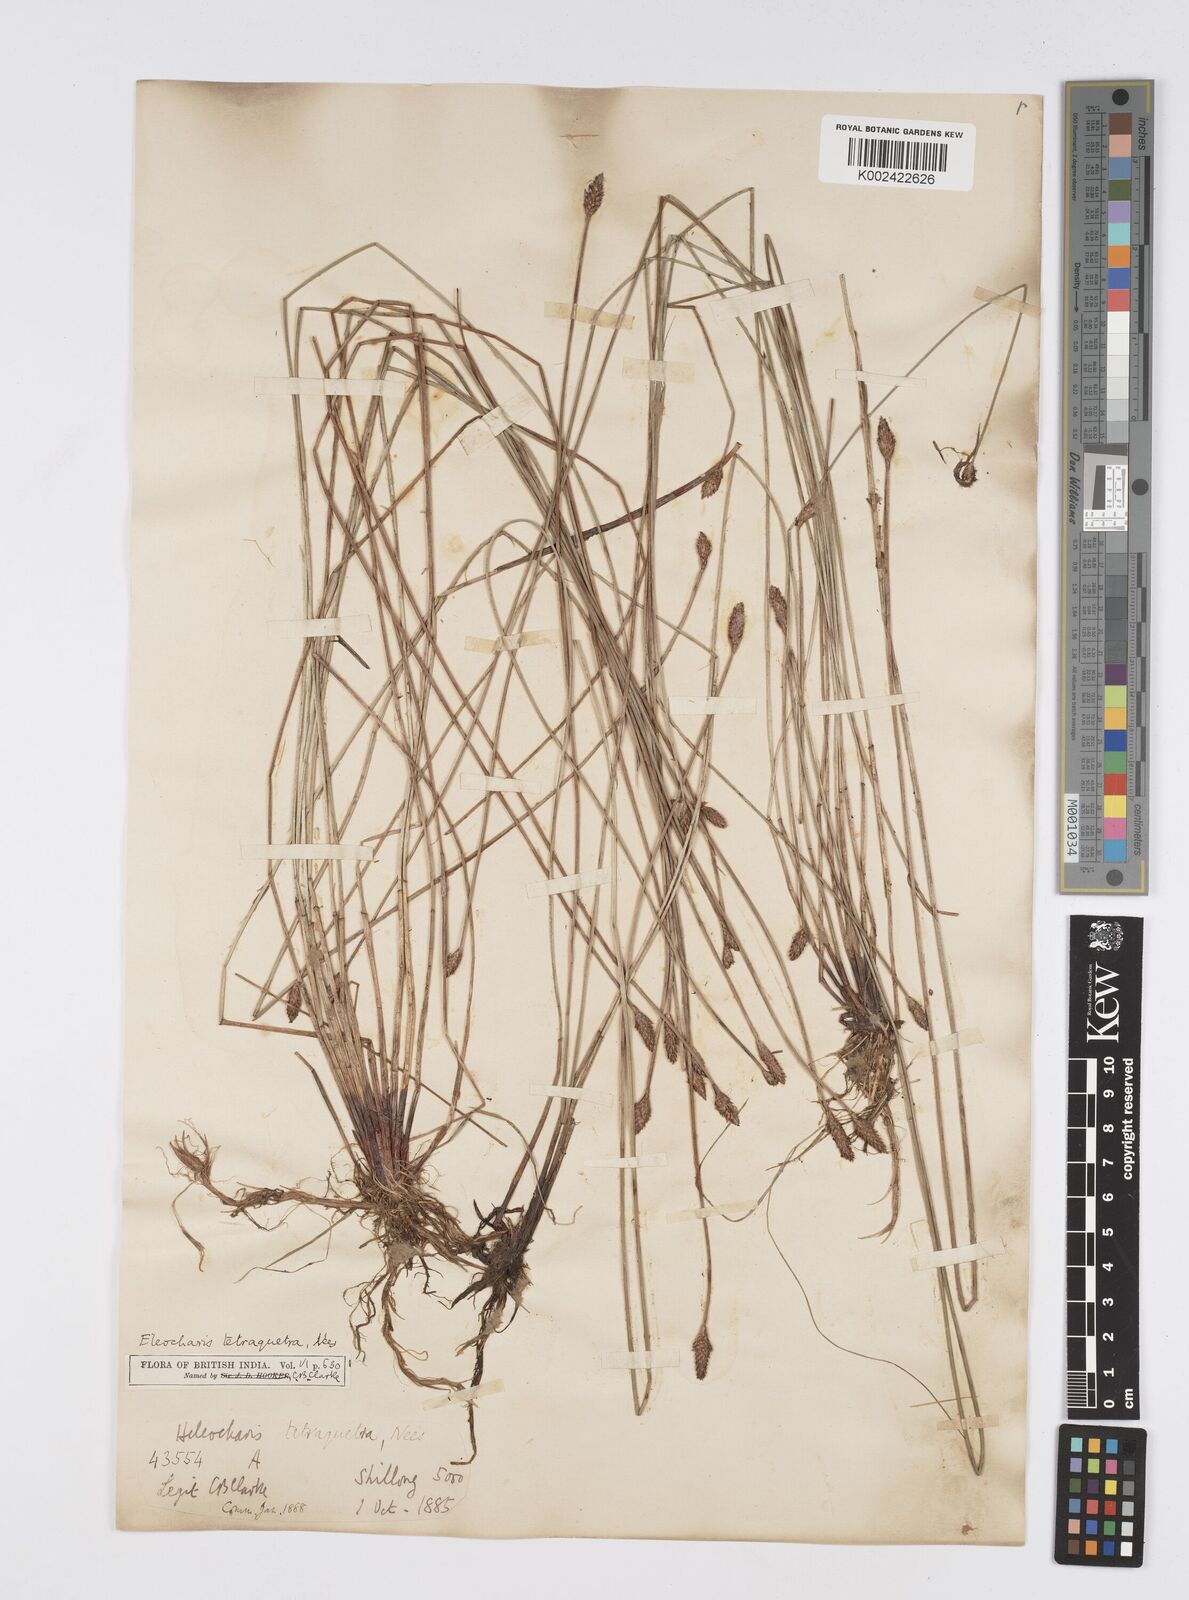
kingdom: Plantae
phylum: Tracheophyta
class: Liliopsida
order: Poales
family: Cyperaceae
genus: Eleocharis
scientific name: Eleocharis tetraquetra
